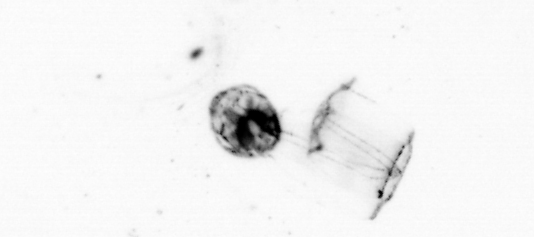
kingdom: Animalia
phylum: Arthropoda
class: Copepoda
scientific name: Copepoda
